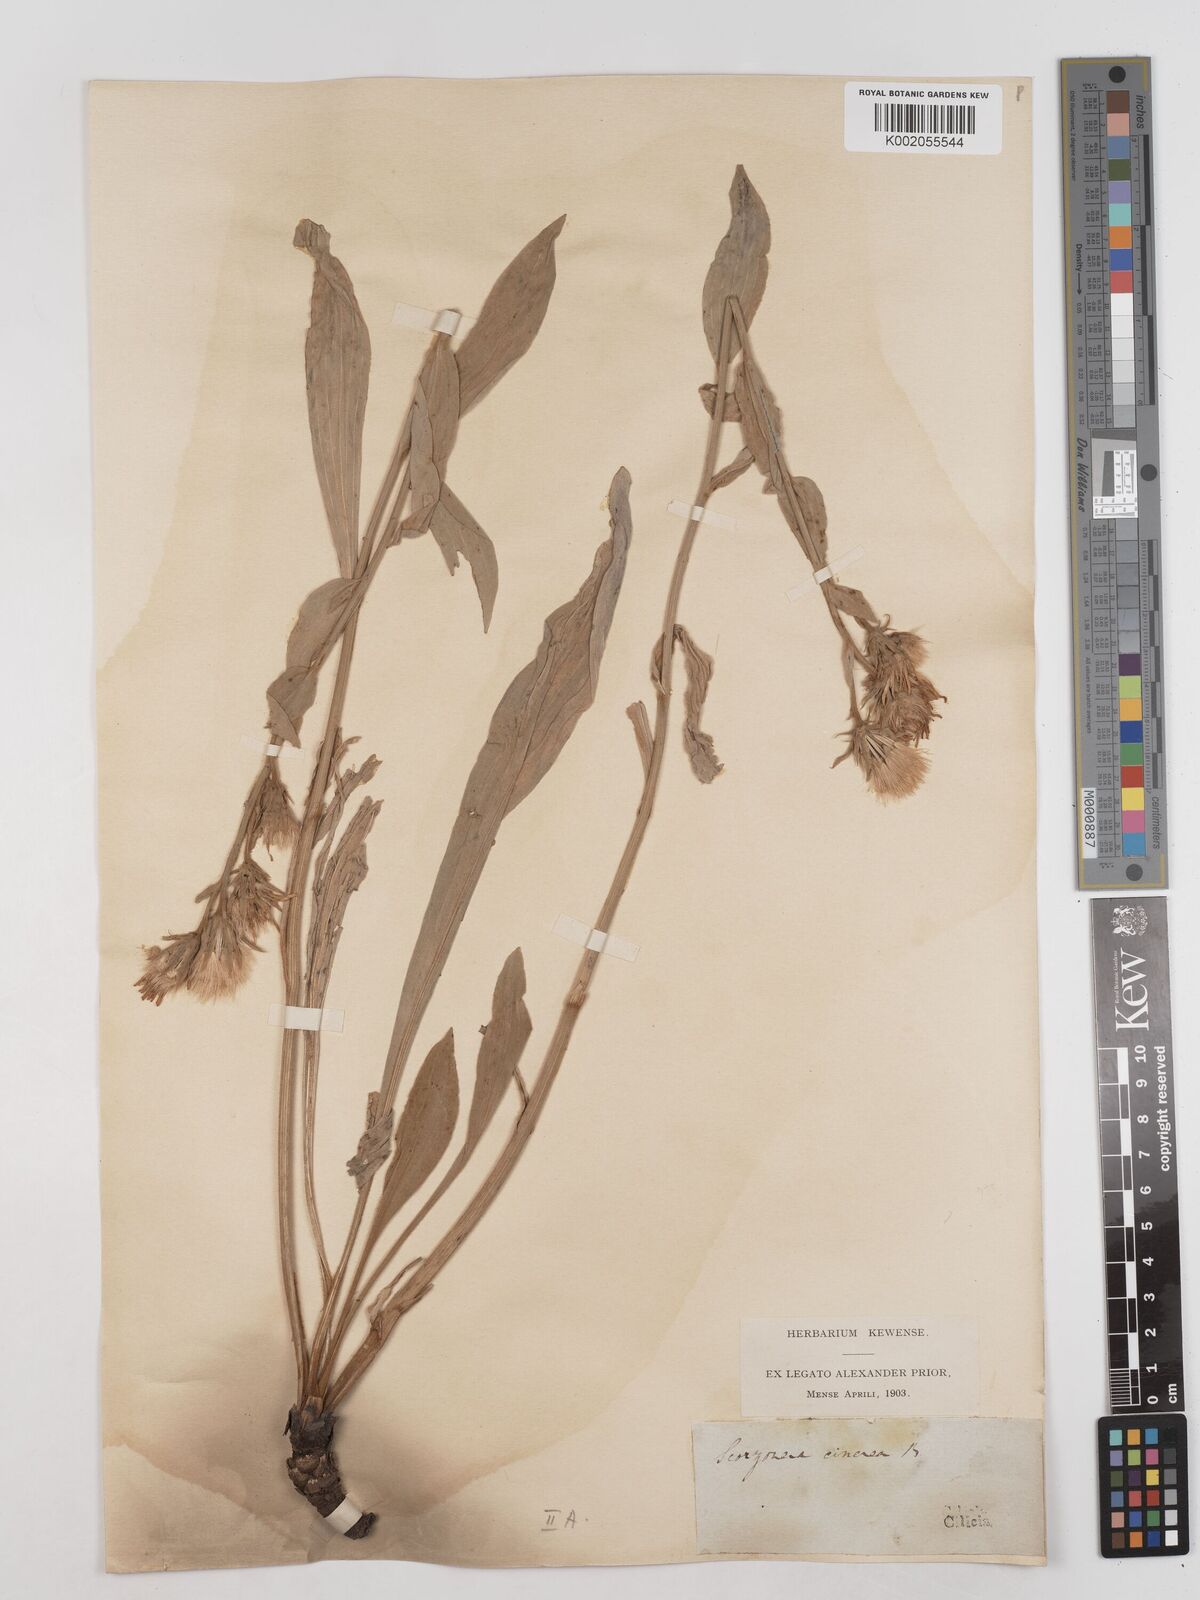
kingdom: Plantae
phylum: Tracheophyta
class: Magnoliopsida
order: Asterales
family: Asteraceae
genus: Cigdemia
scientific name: Cigdemia cinerea
